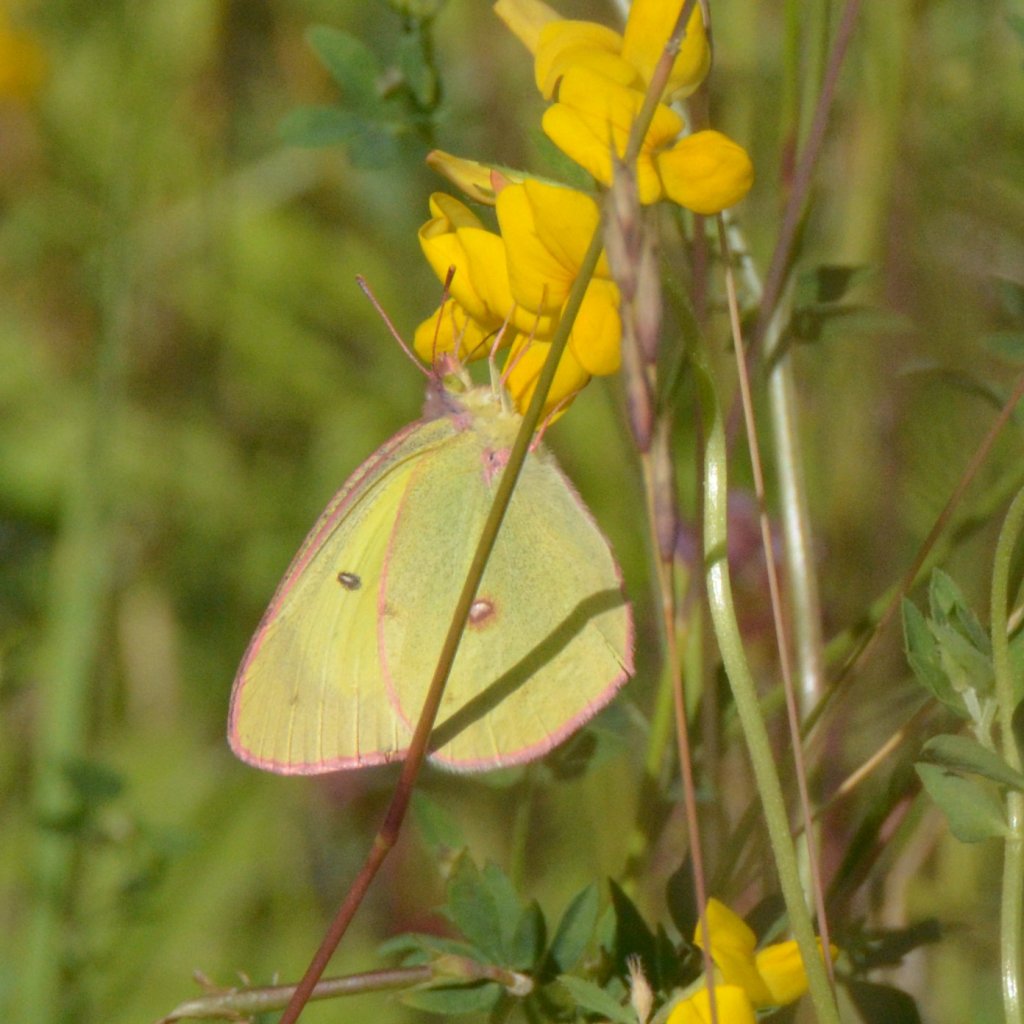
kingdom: Animalia
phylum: Arthropoda
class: Insecta
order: Lepidoptera
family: Pieridae
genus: Colias
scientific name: Colias philodice
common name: Clouded Sulphur
